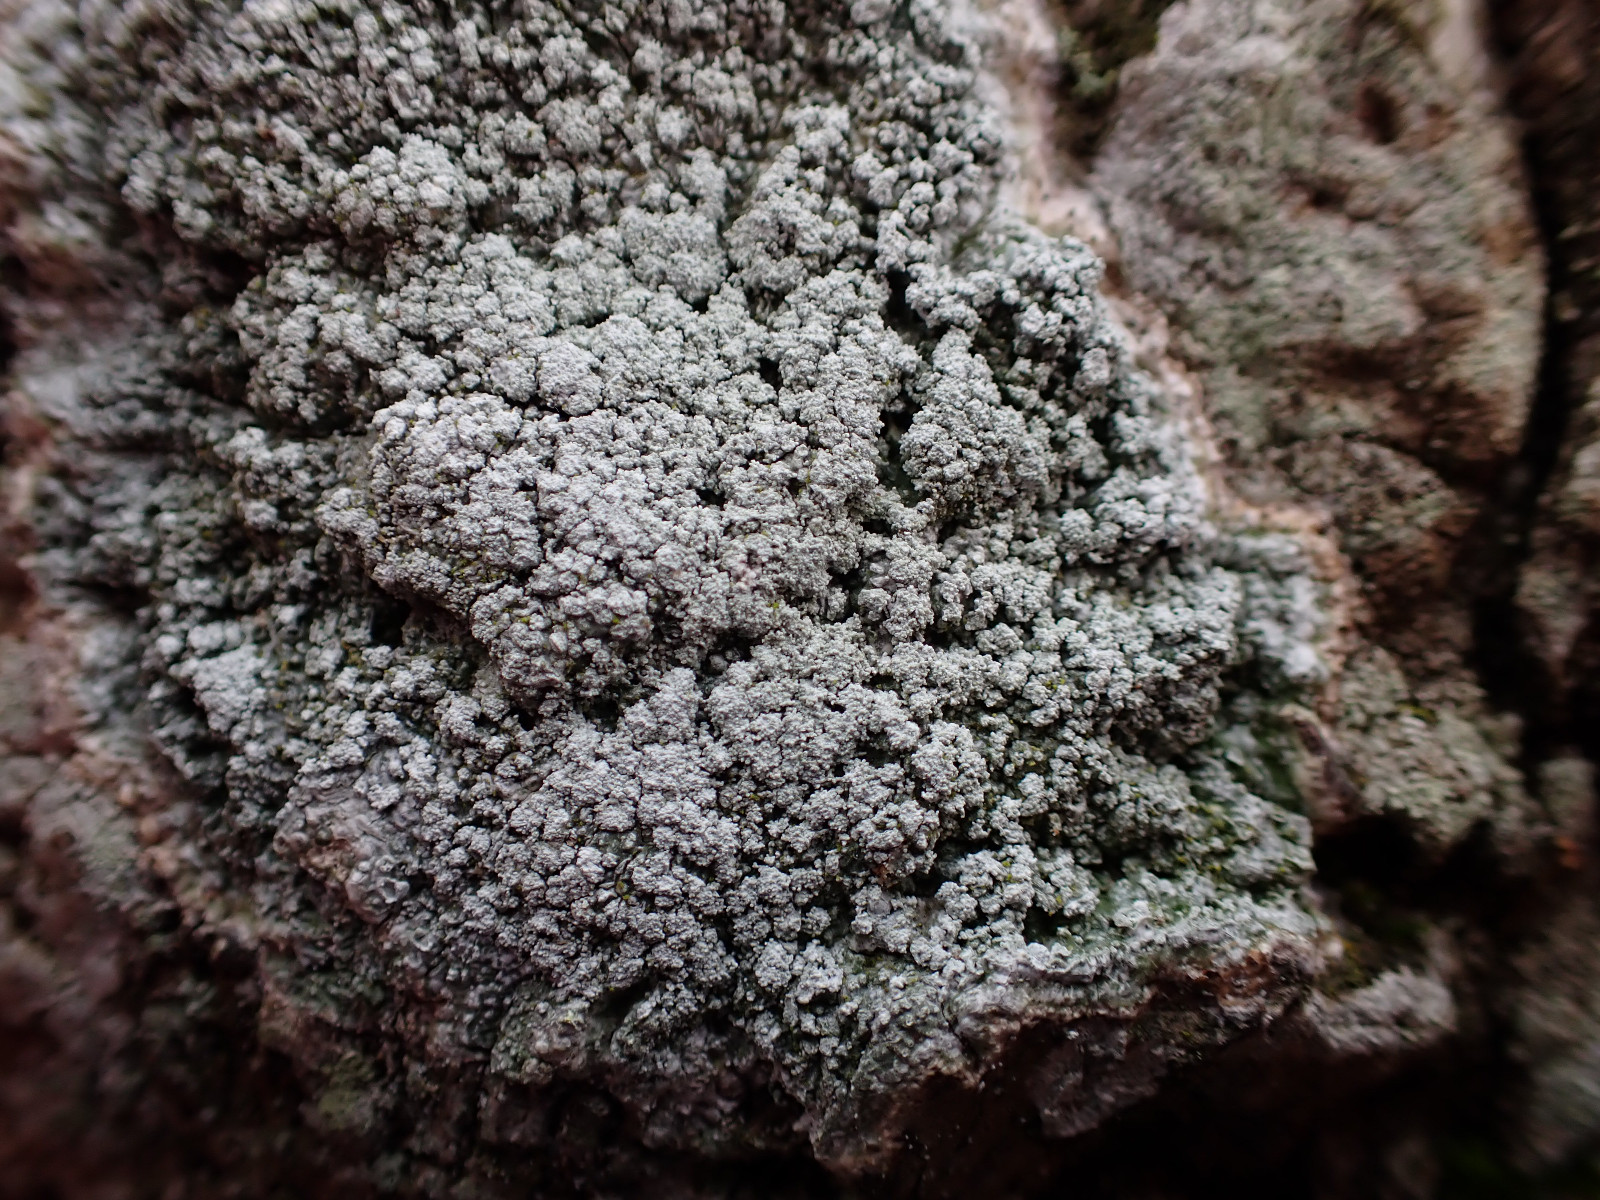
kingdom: Fungi
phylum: Ascomycota
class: Lecanoromycetes
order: Pertusariales
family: Pertusariaceae
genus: Lepra
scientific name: Lepra amara
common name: bitter prikvortelav
